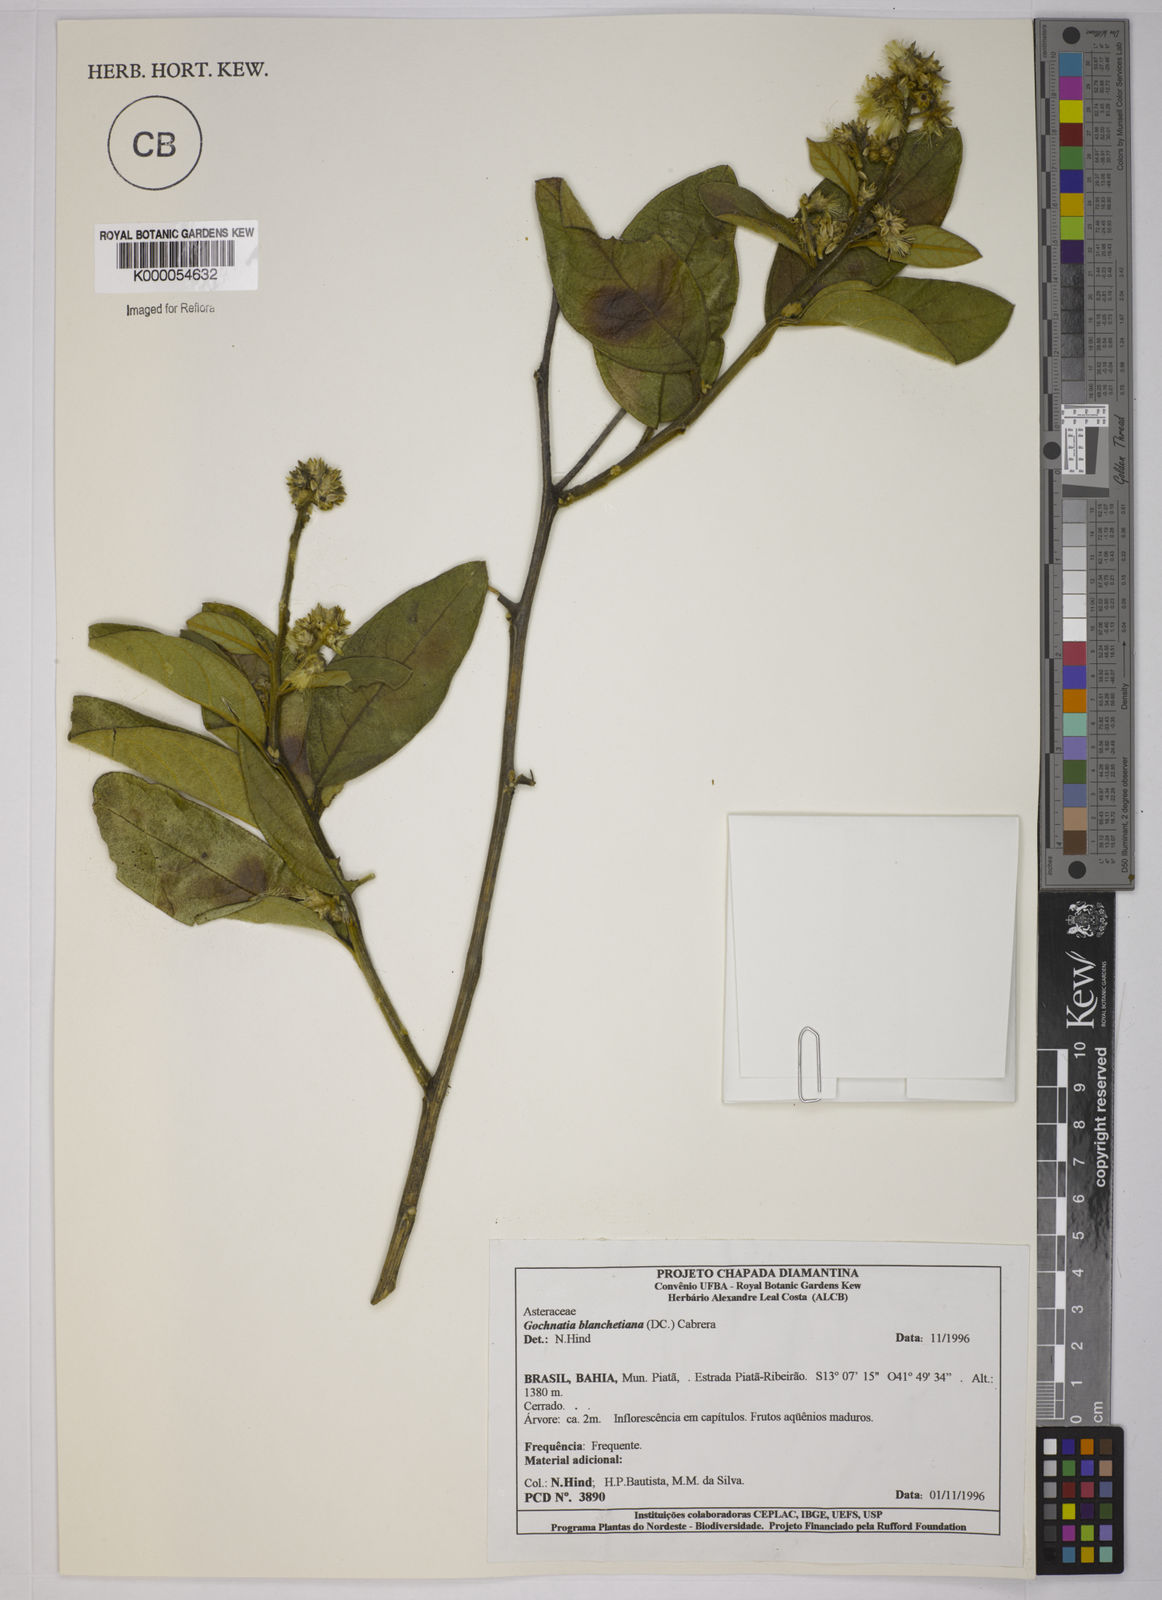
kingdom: Plantae
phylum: Tracheophyta
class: Magnoliopsida
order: Asterales
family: Asteraceae
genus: Moquiniastrum
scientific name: Moquiniastrum blanchetianum
